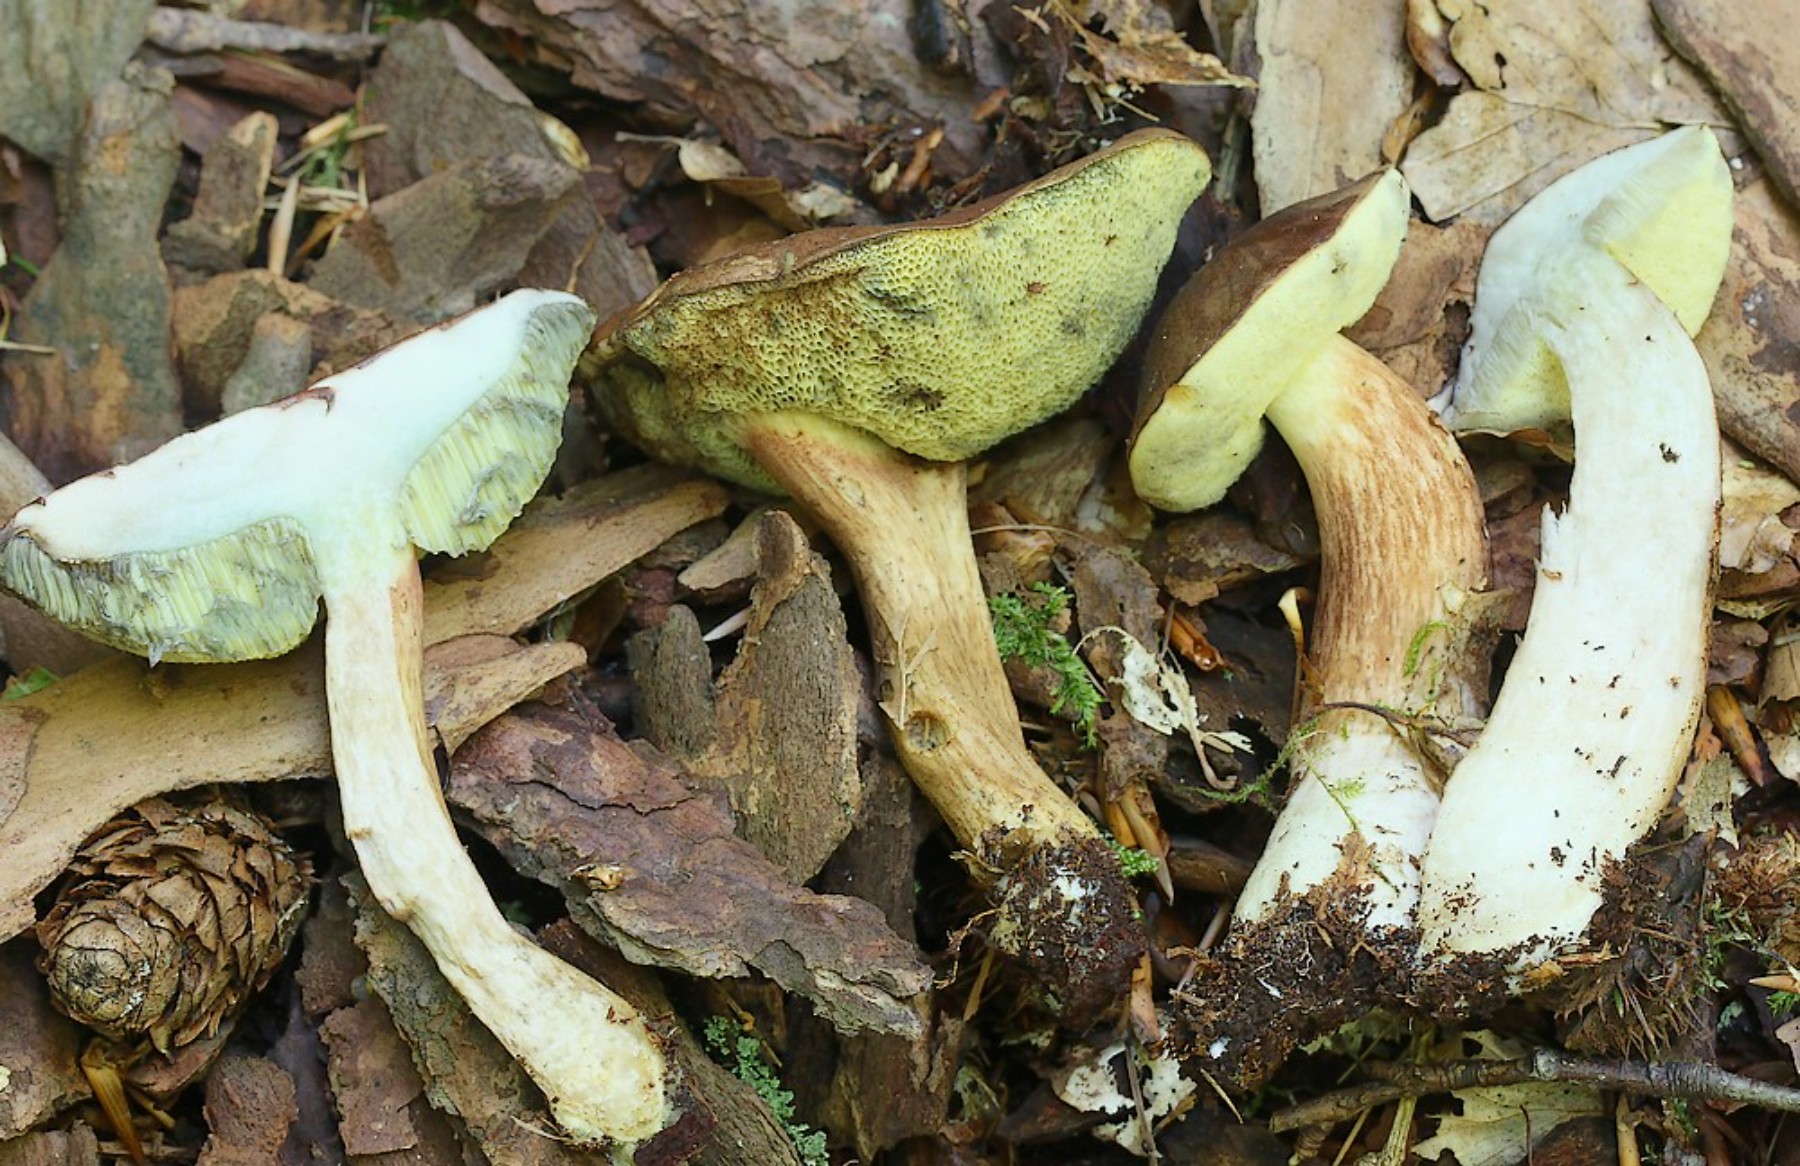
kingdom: Fungi
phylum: Basidiomycota
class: Agaricomycetes
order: Boletales
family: Boletaceae
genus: Imleria
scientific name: Imleria badia
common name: brunstokket rørhat
